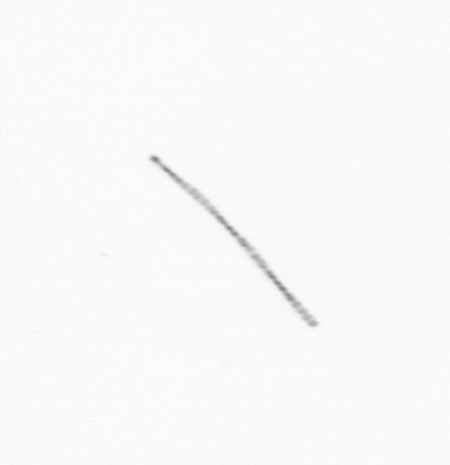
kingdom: Chromista
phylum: Ochrophyta
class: Bacillariophyceae
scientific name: Bacillariophyceae
